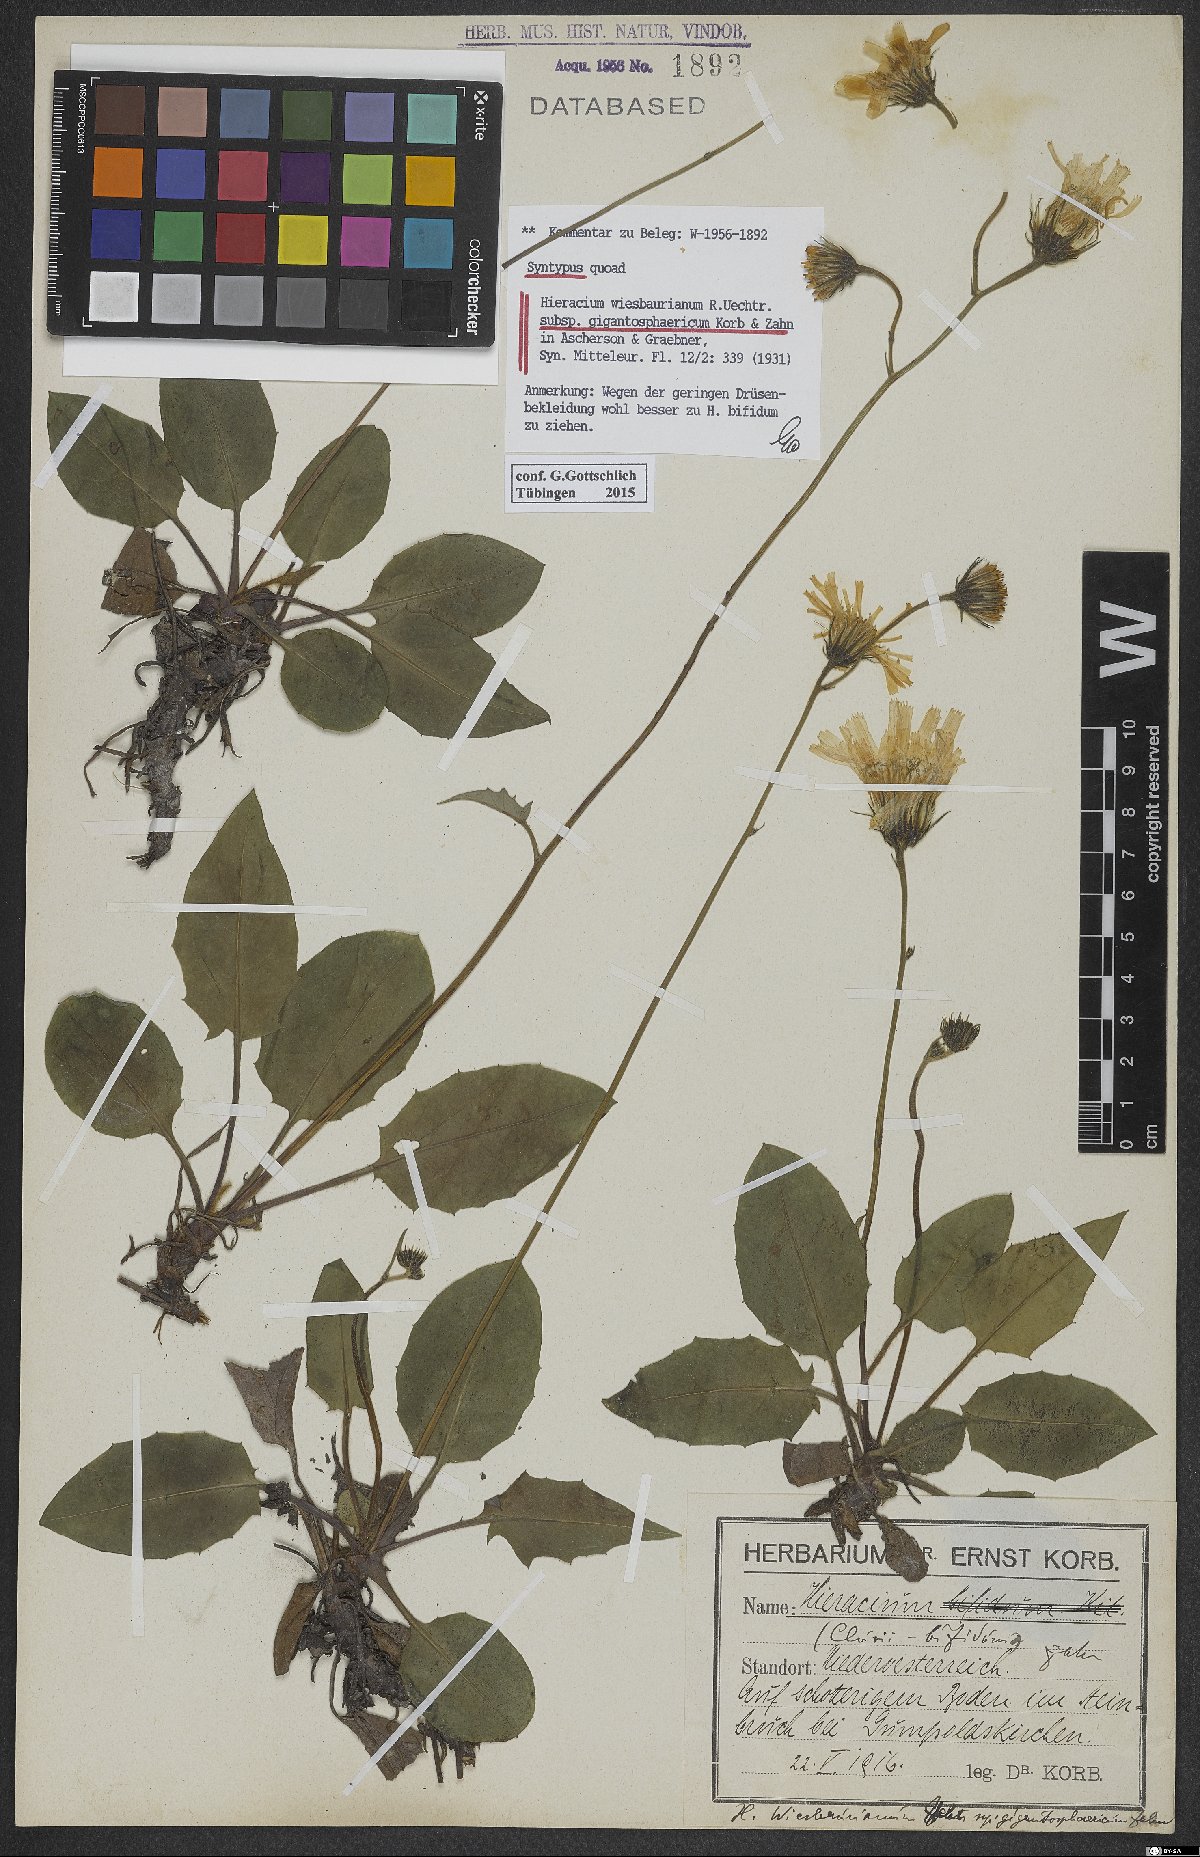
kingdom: Plantae
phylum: Tracheophyta
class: Magnoliopsida
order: Asterales
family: Asteraceae
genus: Hieracium
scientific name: Hieracium bifidum
